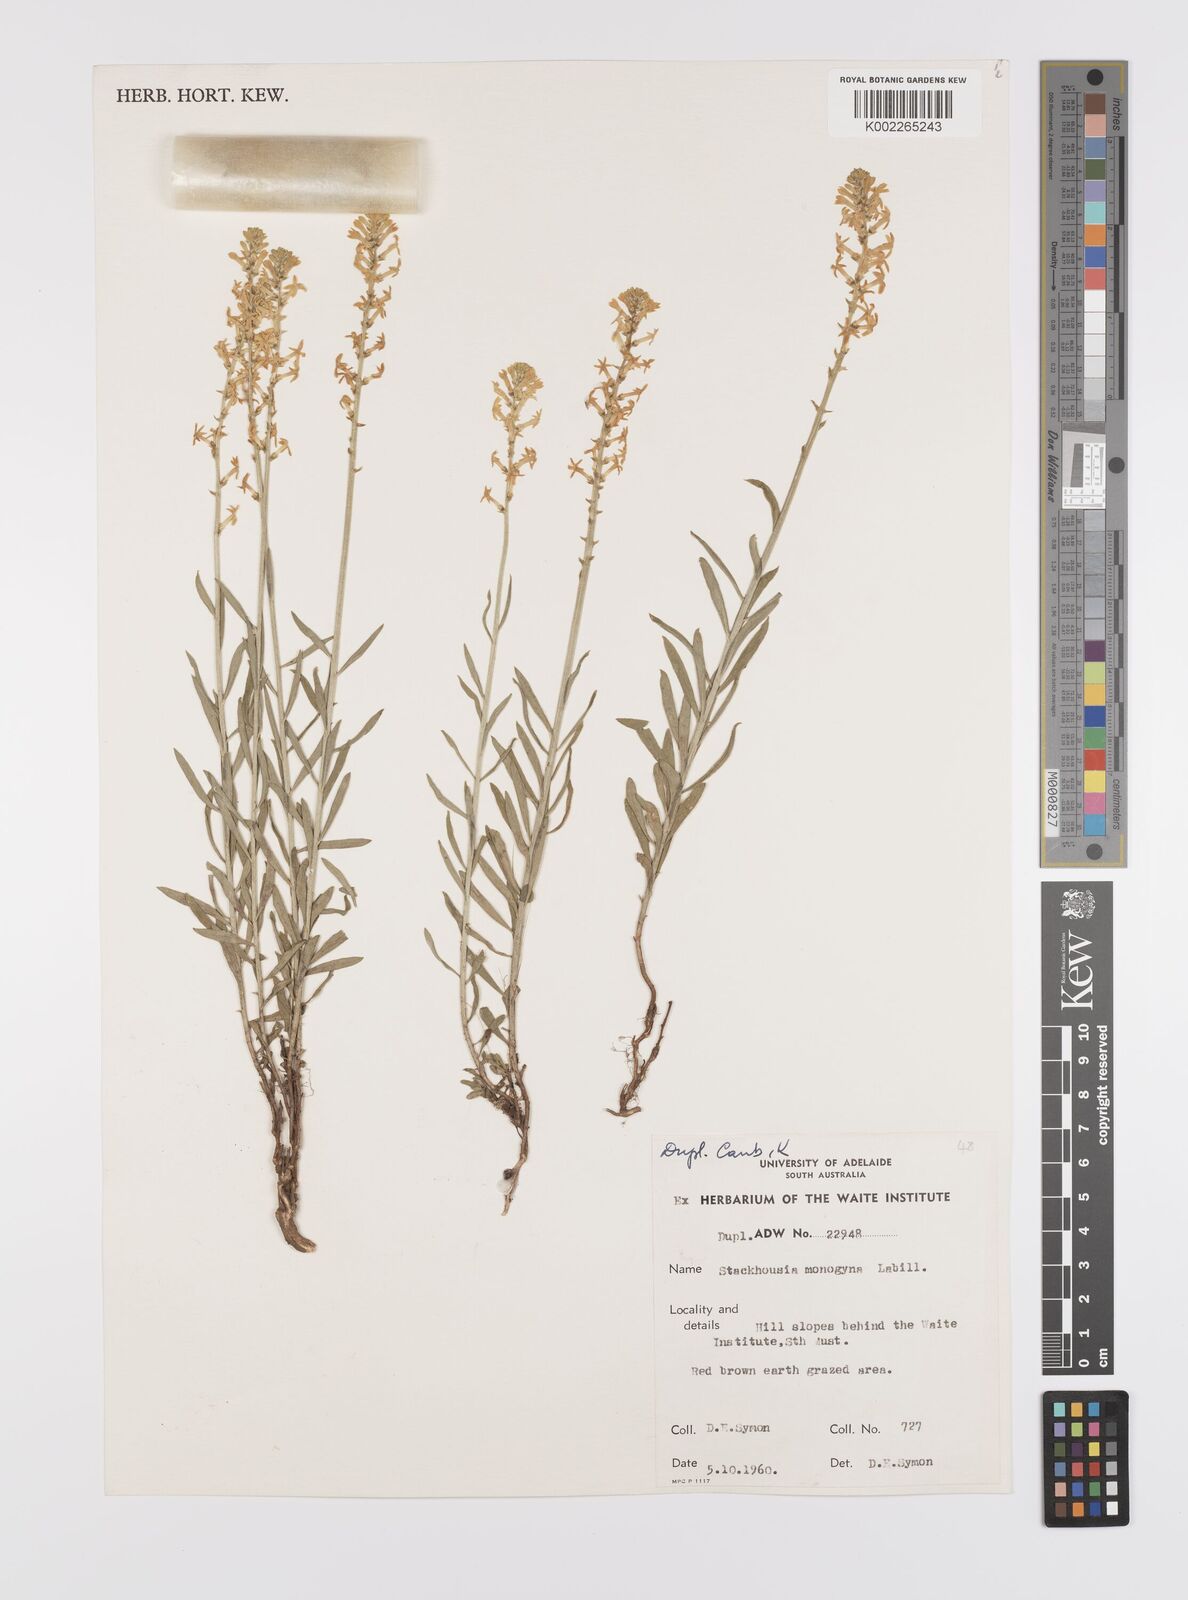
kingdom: Plantae
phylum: Tracheophyta
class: Magnoliopsida
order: Celastrales
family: Celastraceae
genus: Stackhousia
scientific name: Stackhousia monogyna
